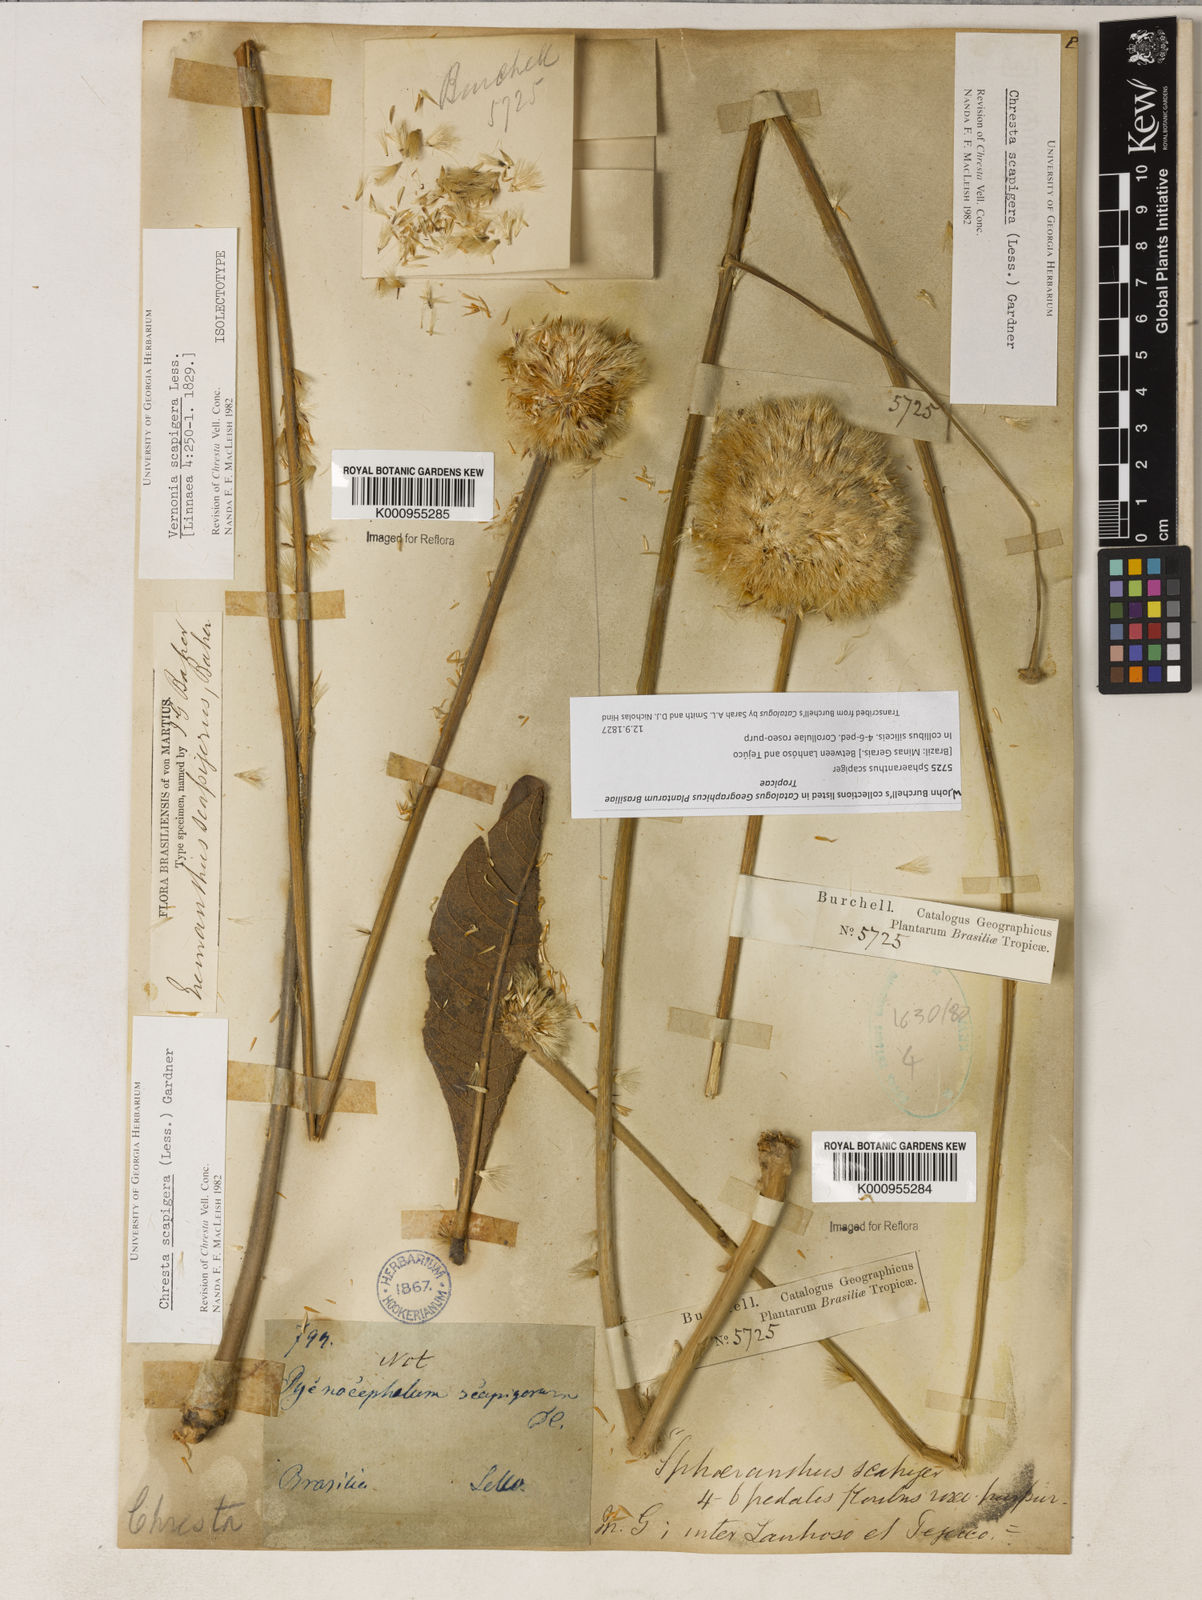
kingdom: Plantae
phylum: Tracheophyta
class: Magnoliopsida
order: Asterales
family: Asteraceae
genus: Chresta
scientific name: Chresta scapigera
